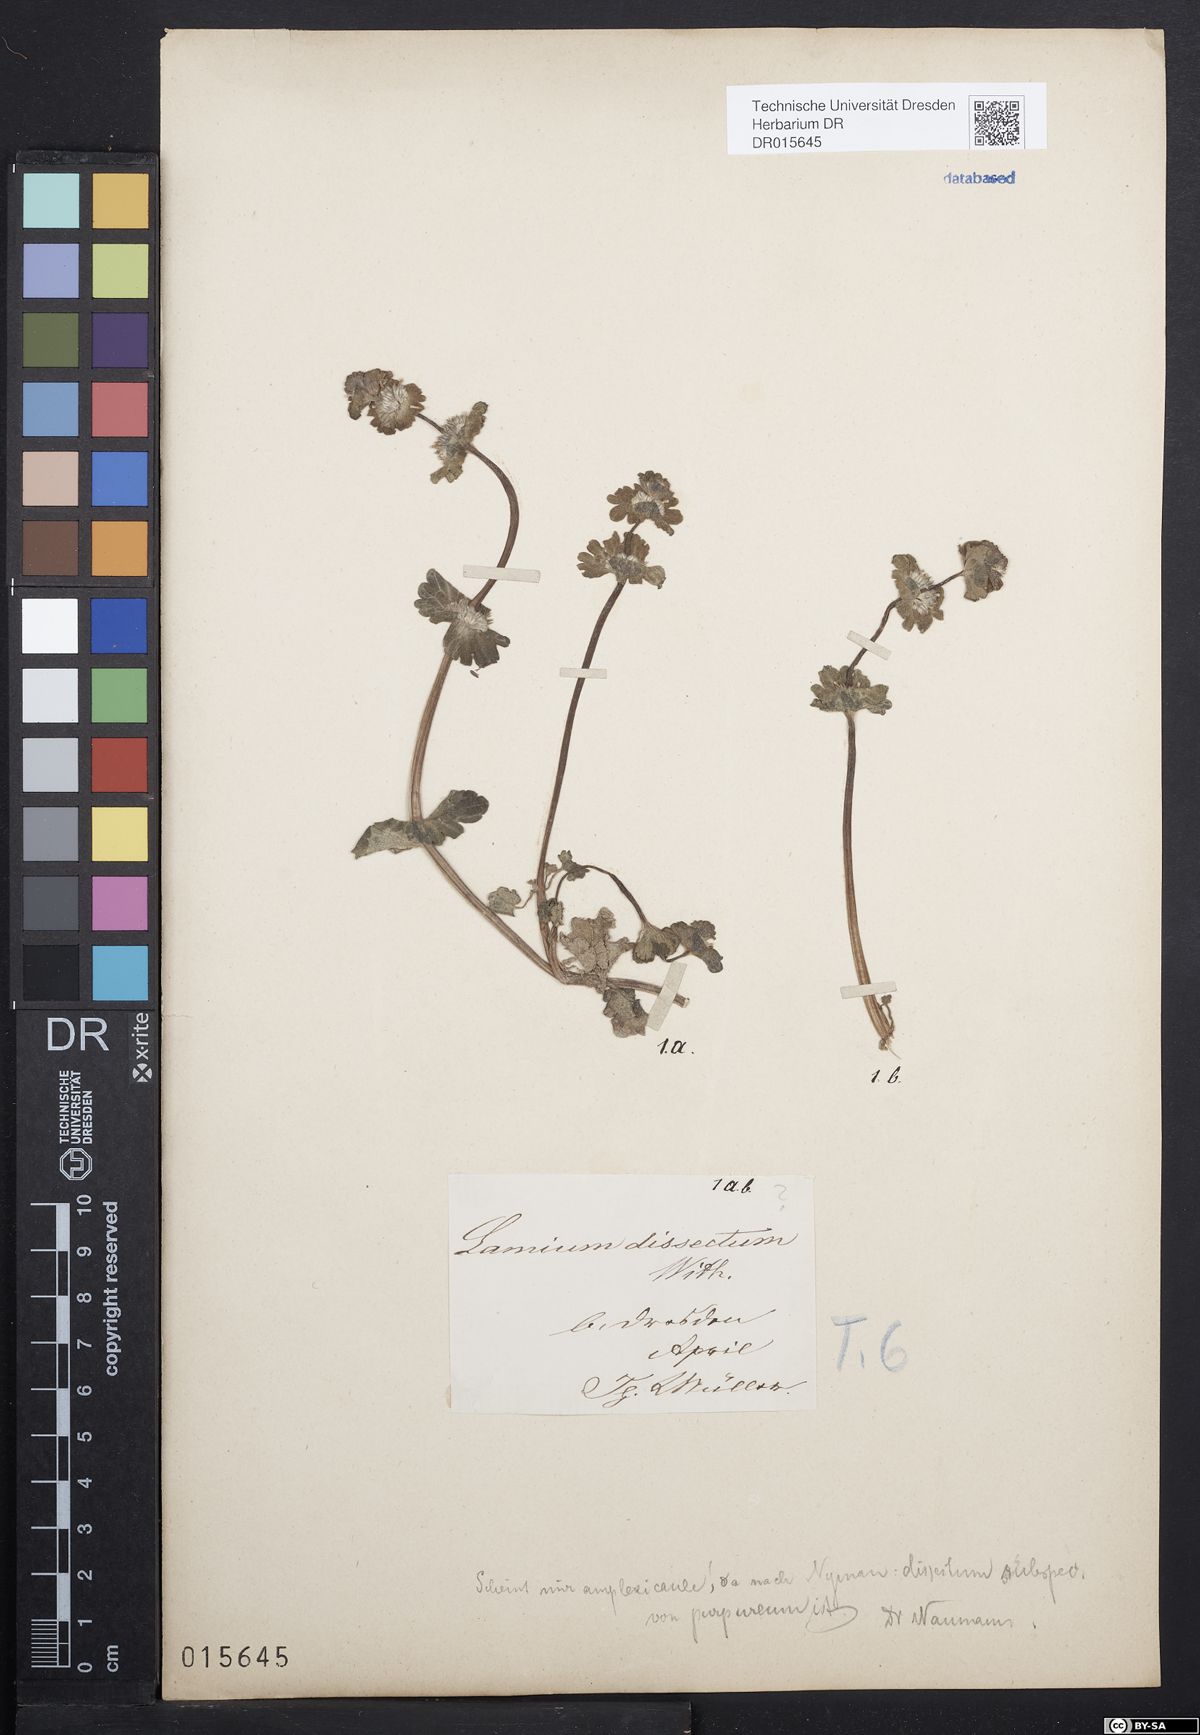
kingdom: Plantae
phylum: Tracheophyta
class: Magnoliopsida
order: Lamiales
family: Lamiaceae
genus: Lamium
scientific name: Lamium amplexicaule
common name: Henbit dead-nettle
